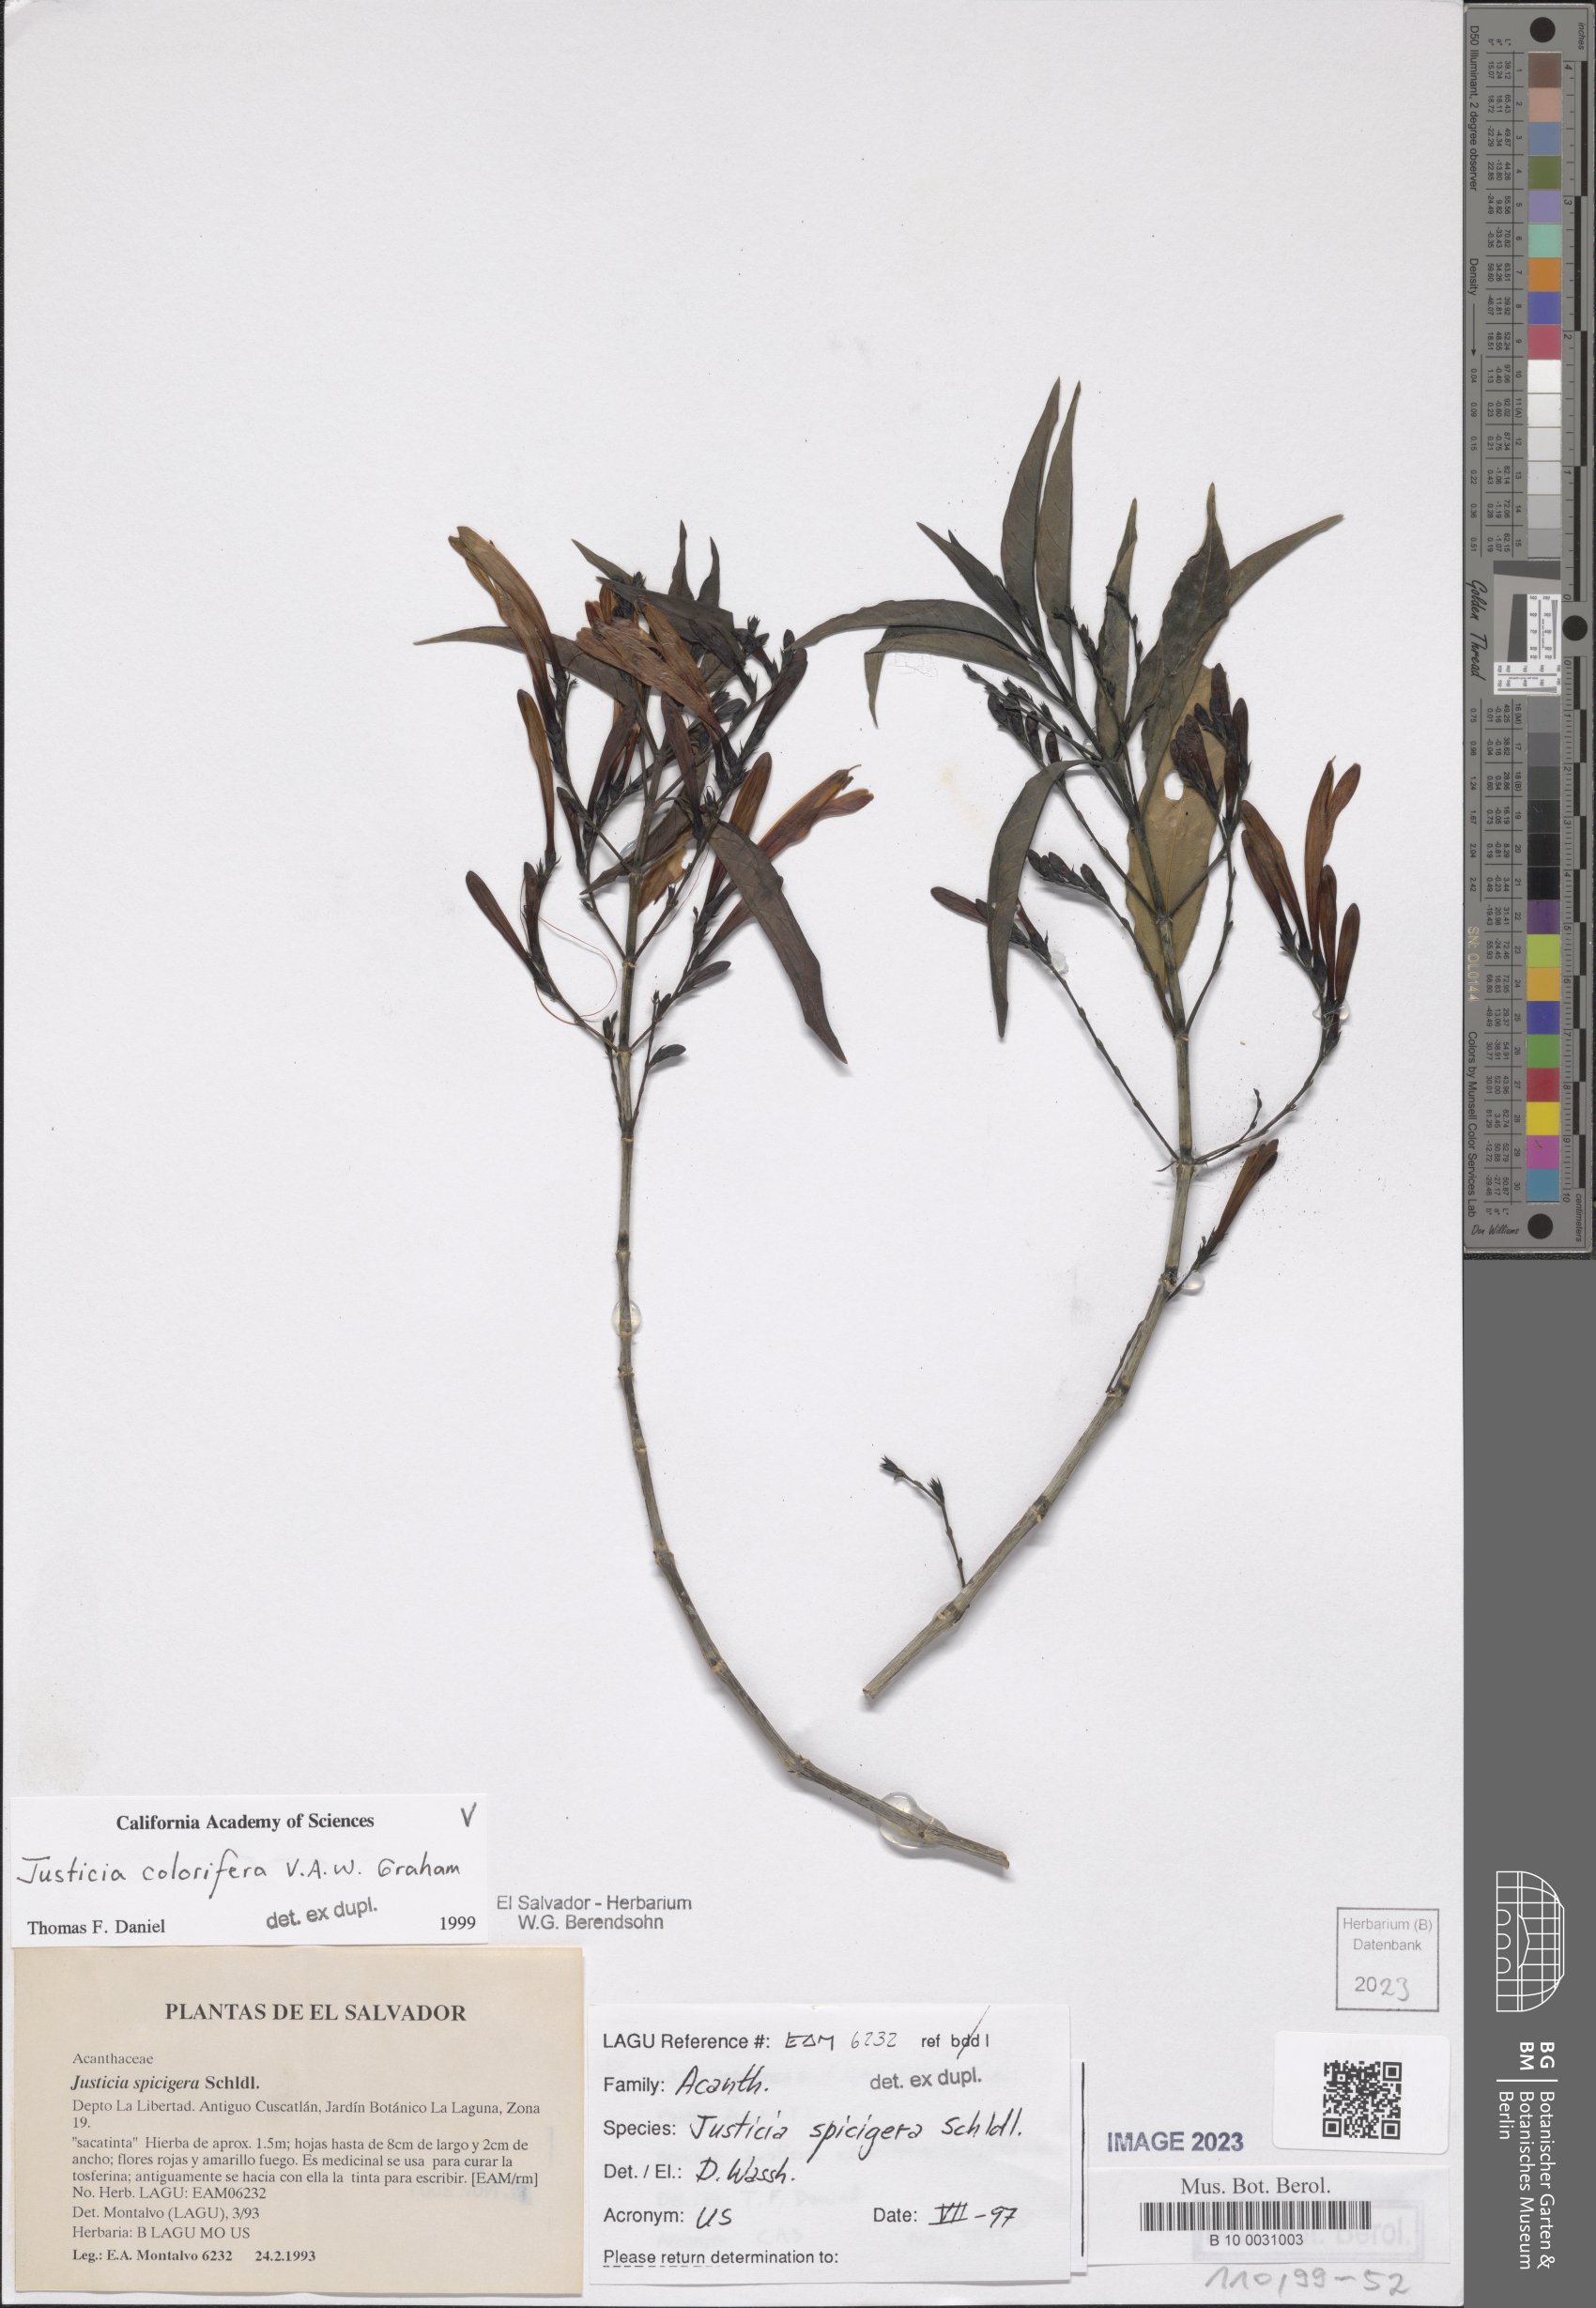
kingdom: Plantae
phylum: Tracheophyta
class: Magnoliopsida
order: Lamiales
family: Acanthaceae
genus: Justicia
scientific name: Justicia tinctoriella
